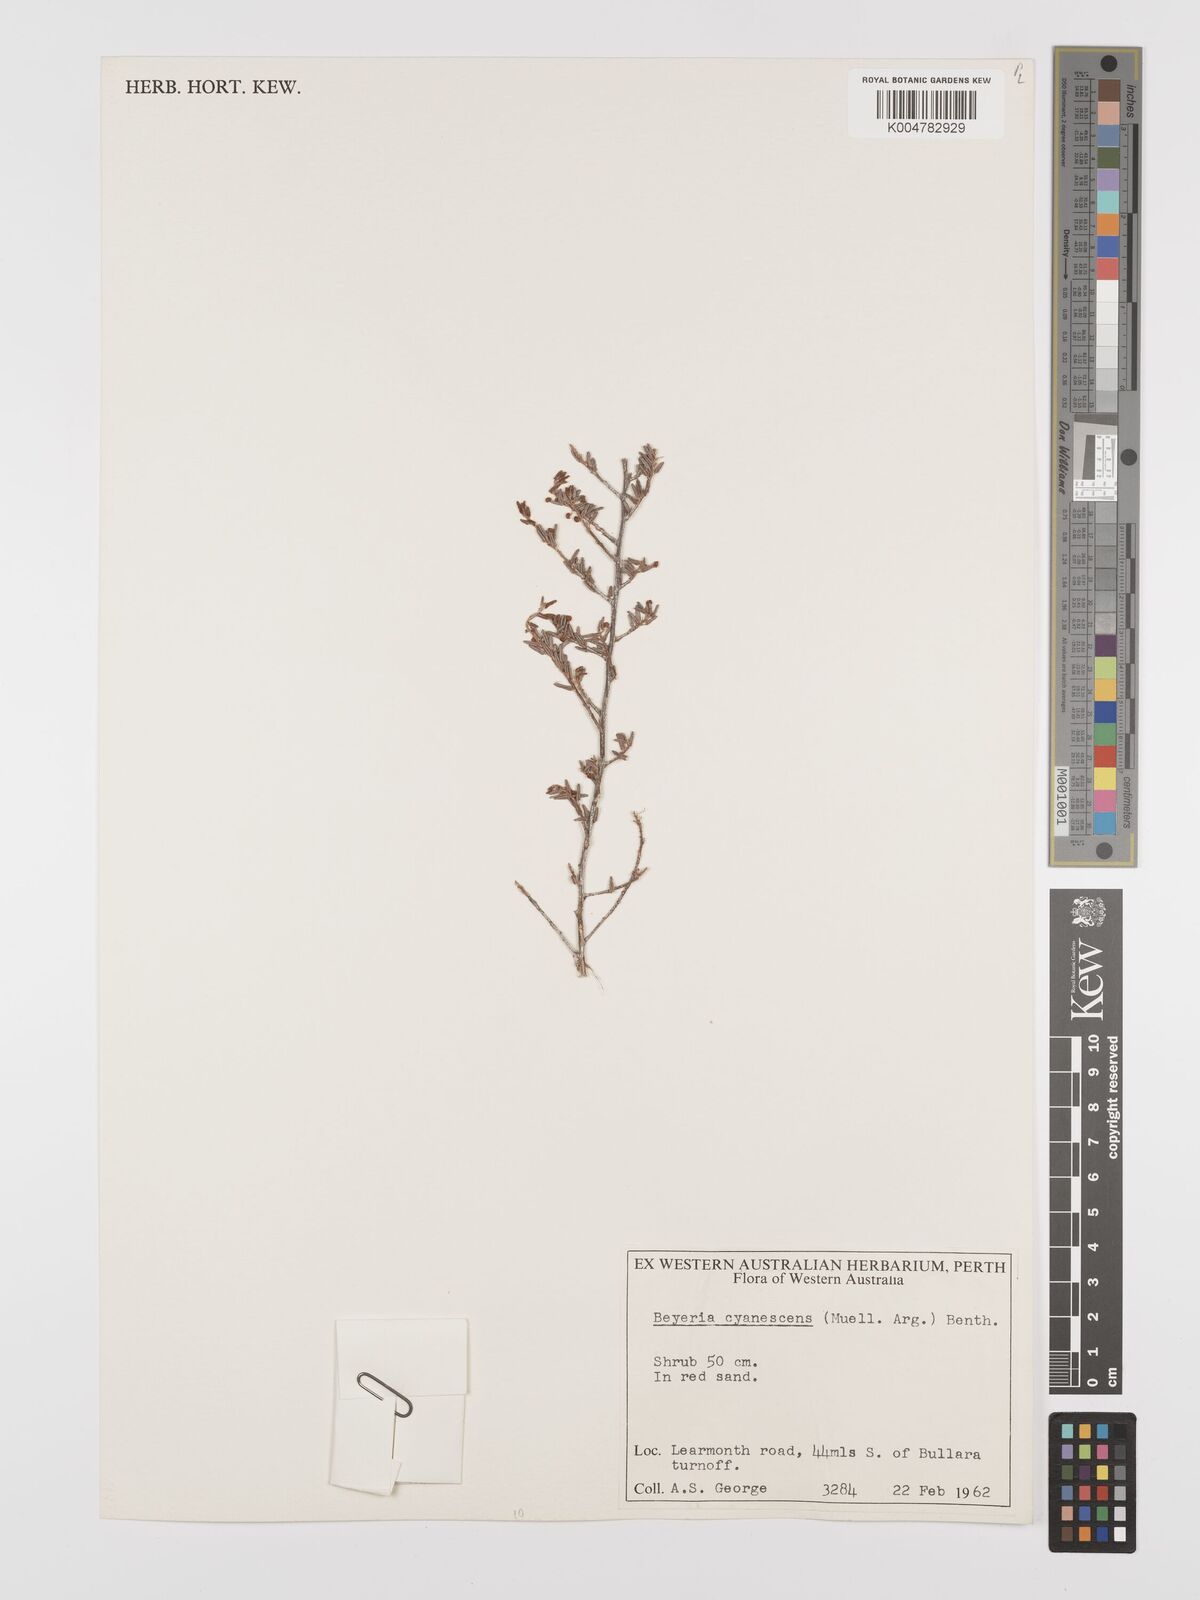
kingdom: Plantae
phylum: Tracheophyta
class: Magnoliopsida
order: Malpighiales
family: Euphorbiaceae
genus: Beyeria
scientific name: Beyeria cyanescens
